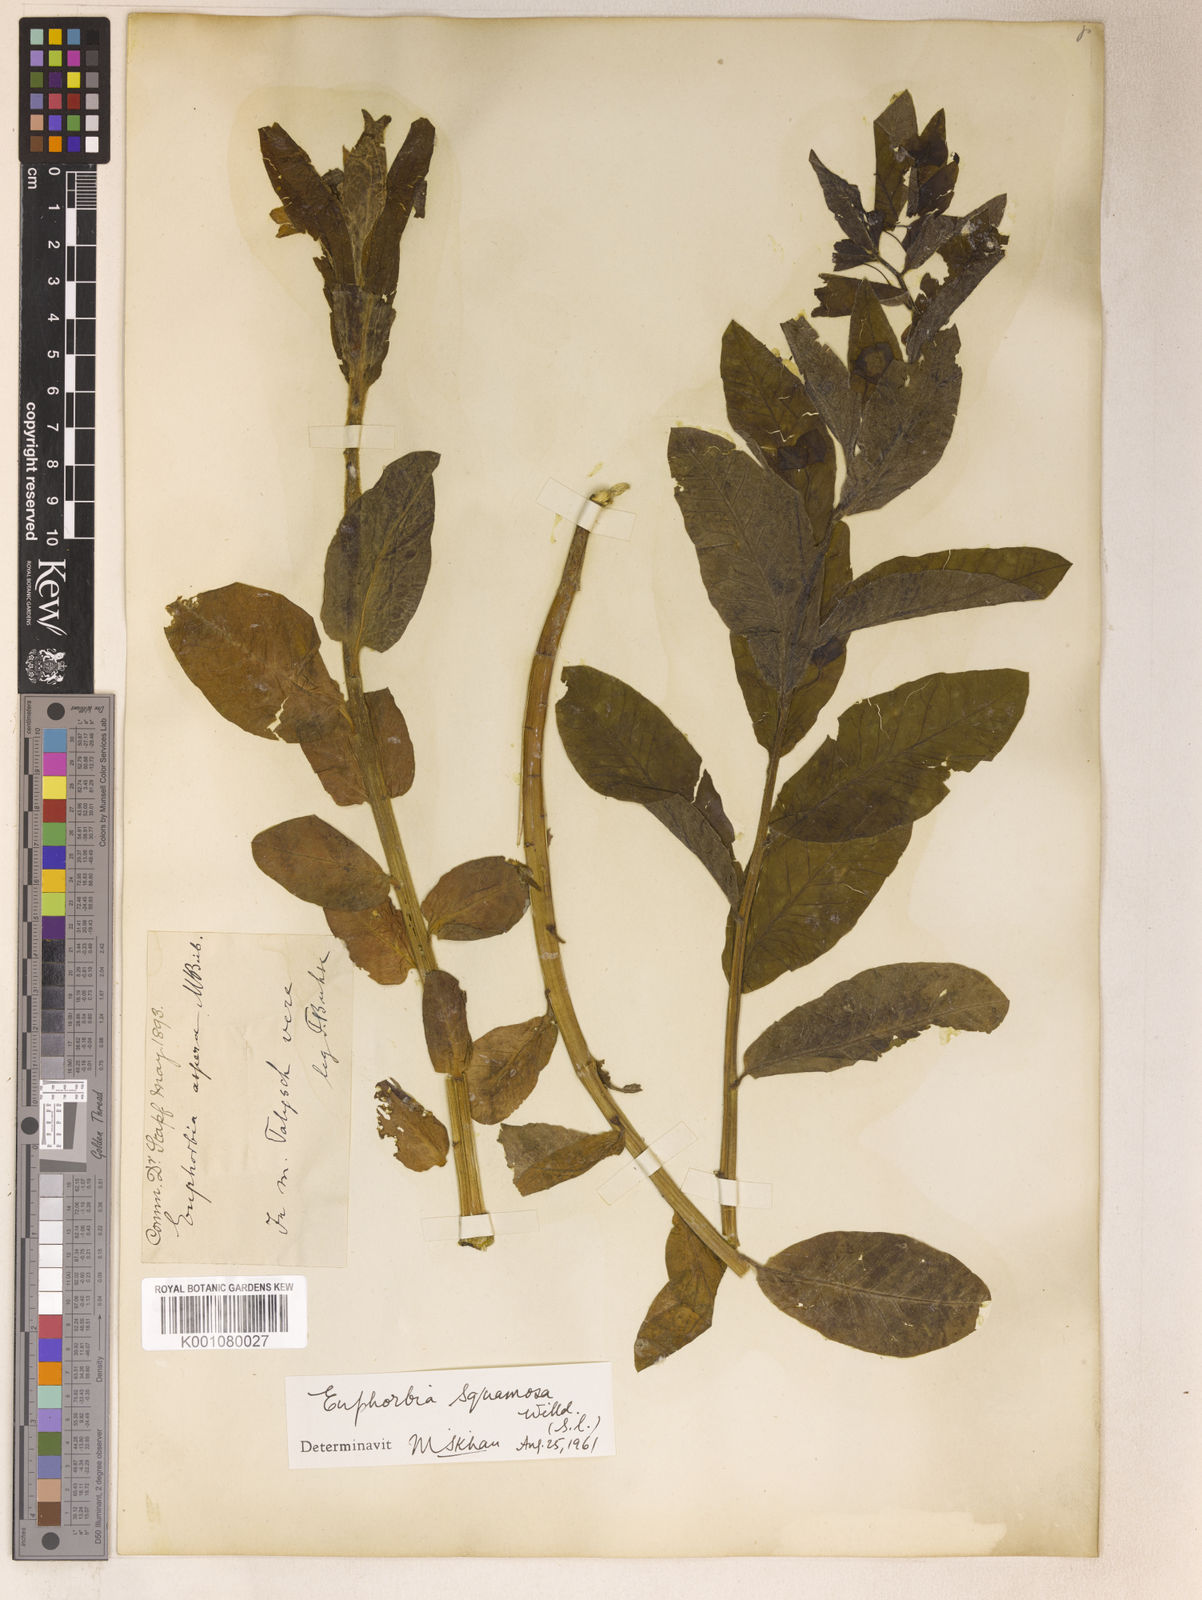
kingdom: Plantae
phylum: Tracheophyta
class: Magnoliopsida
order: Malpighiales
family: Euphorbiaceae
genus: Euphorbia
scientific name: Euphorbia squamosa
